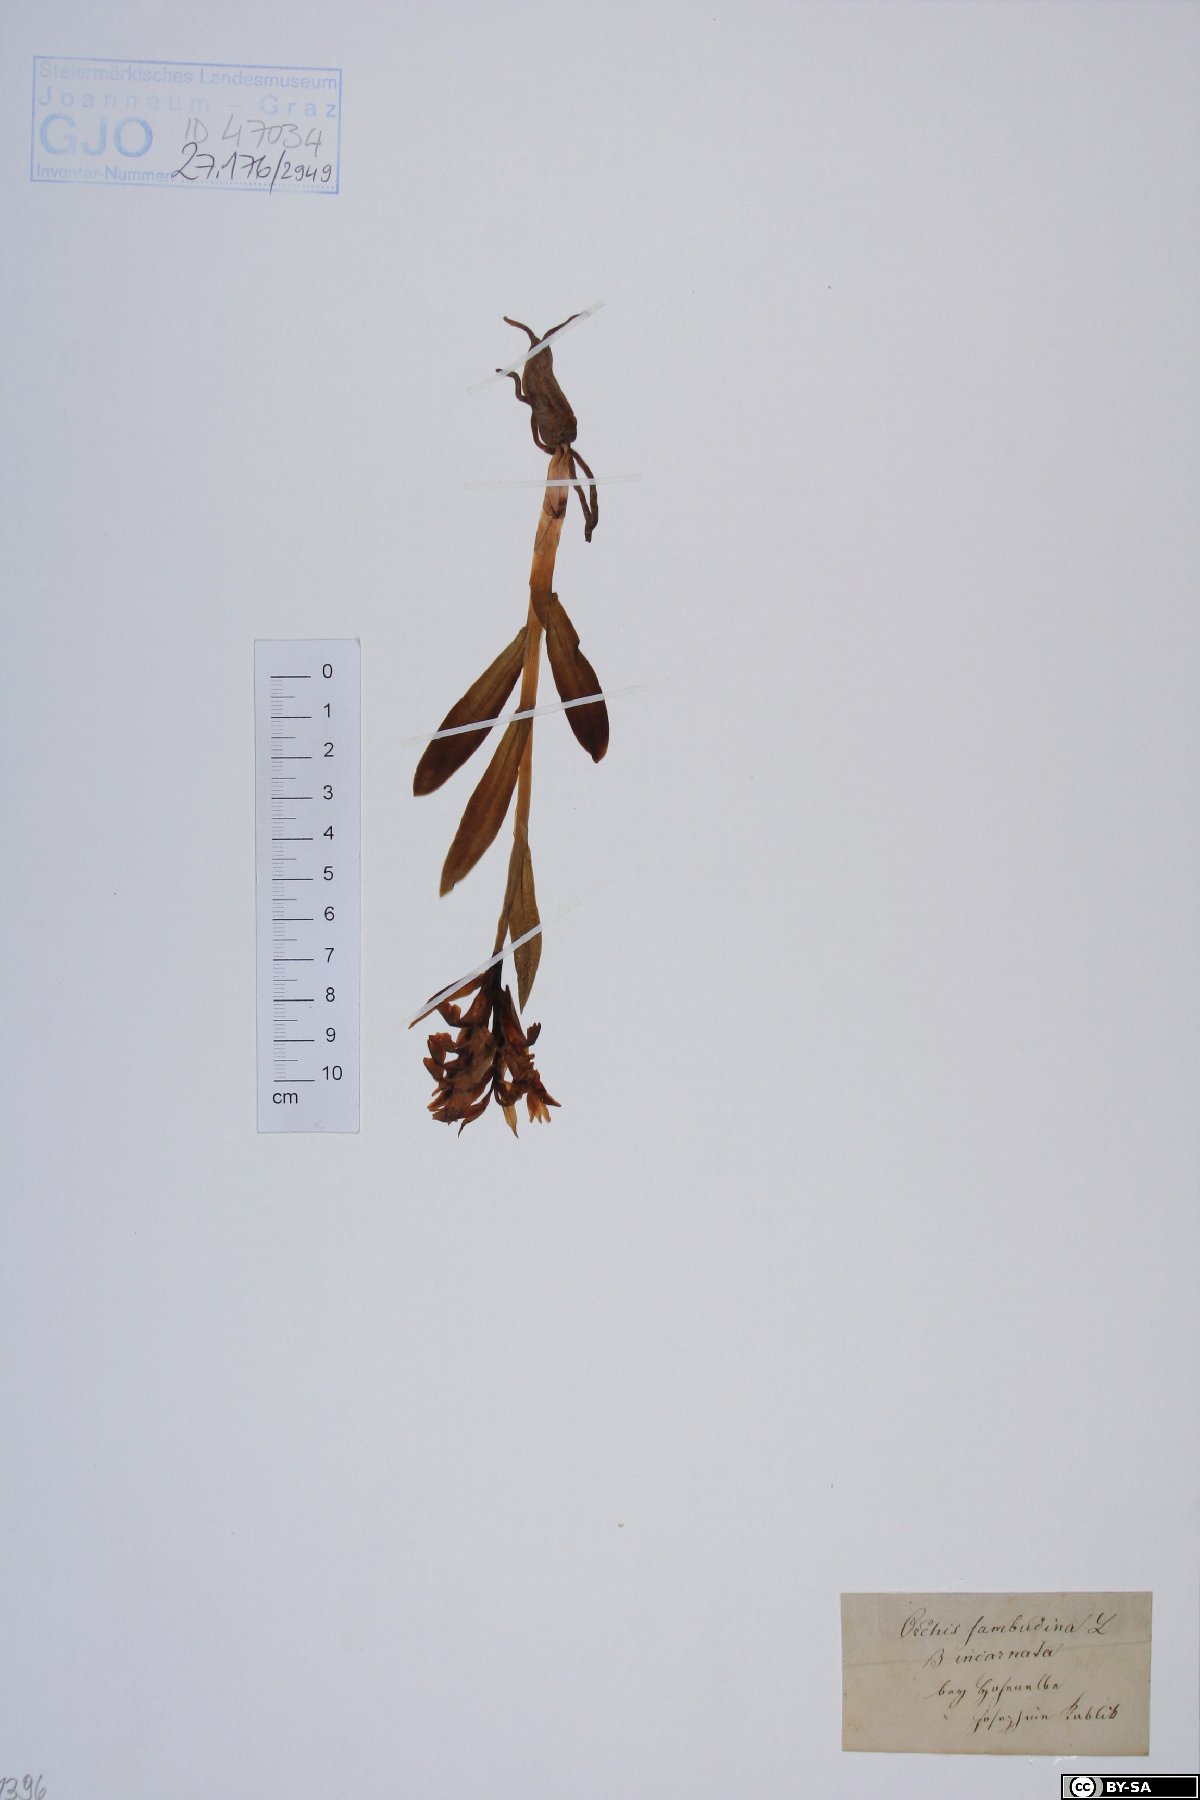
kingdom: Plantae
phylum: Tracheophyta
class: Liliopsida
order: Asparagales
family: Orchidaceae
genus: Dactylorhiza
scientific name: Dactylorhiza sambucina
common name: Elder-flowered orchid
